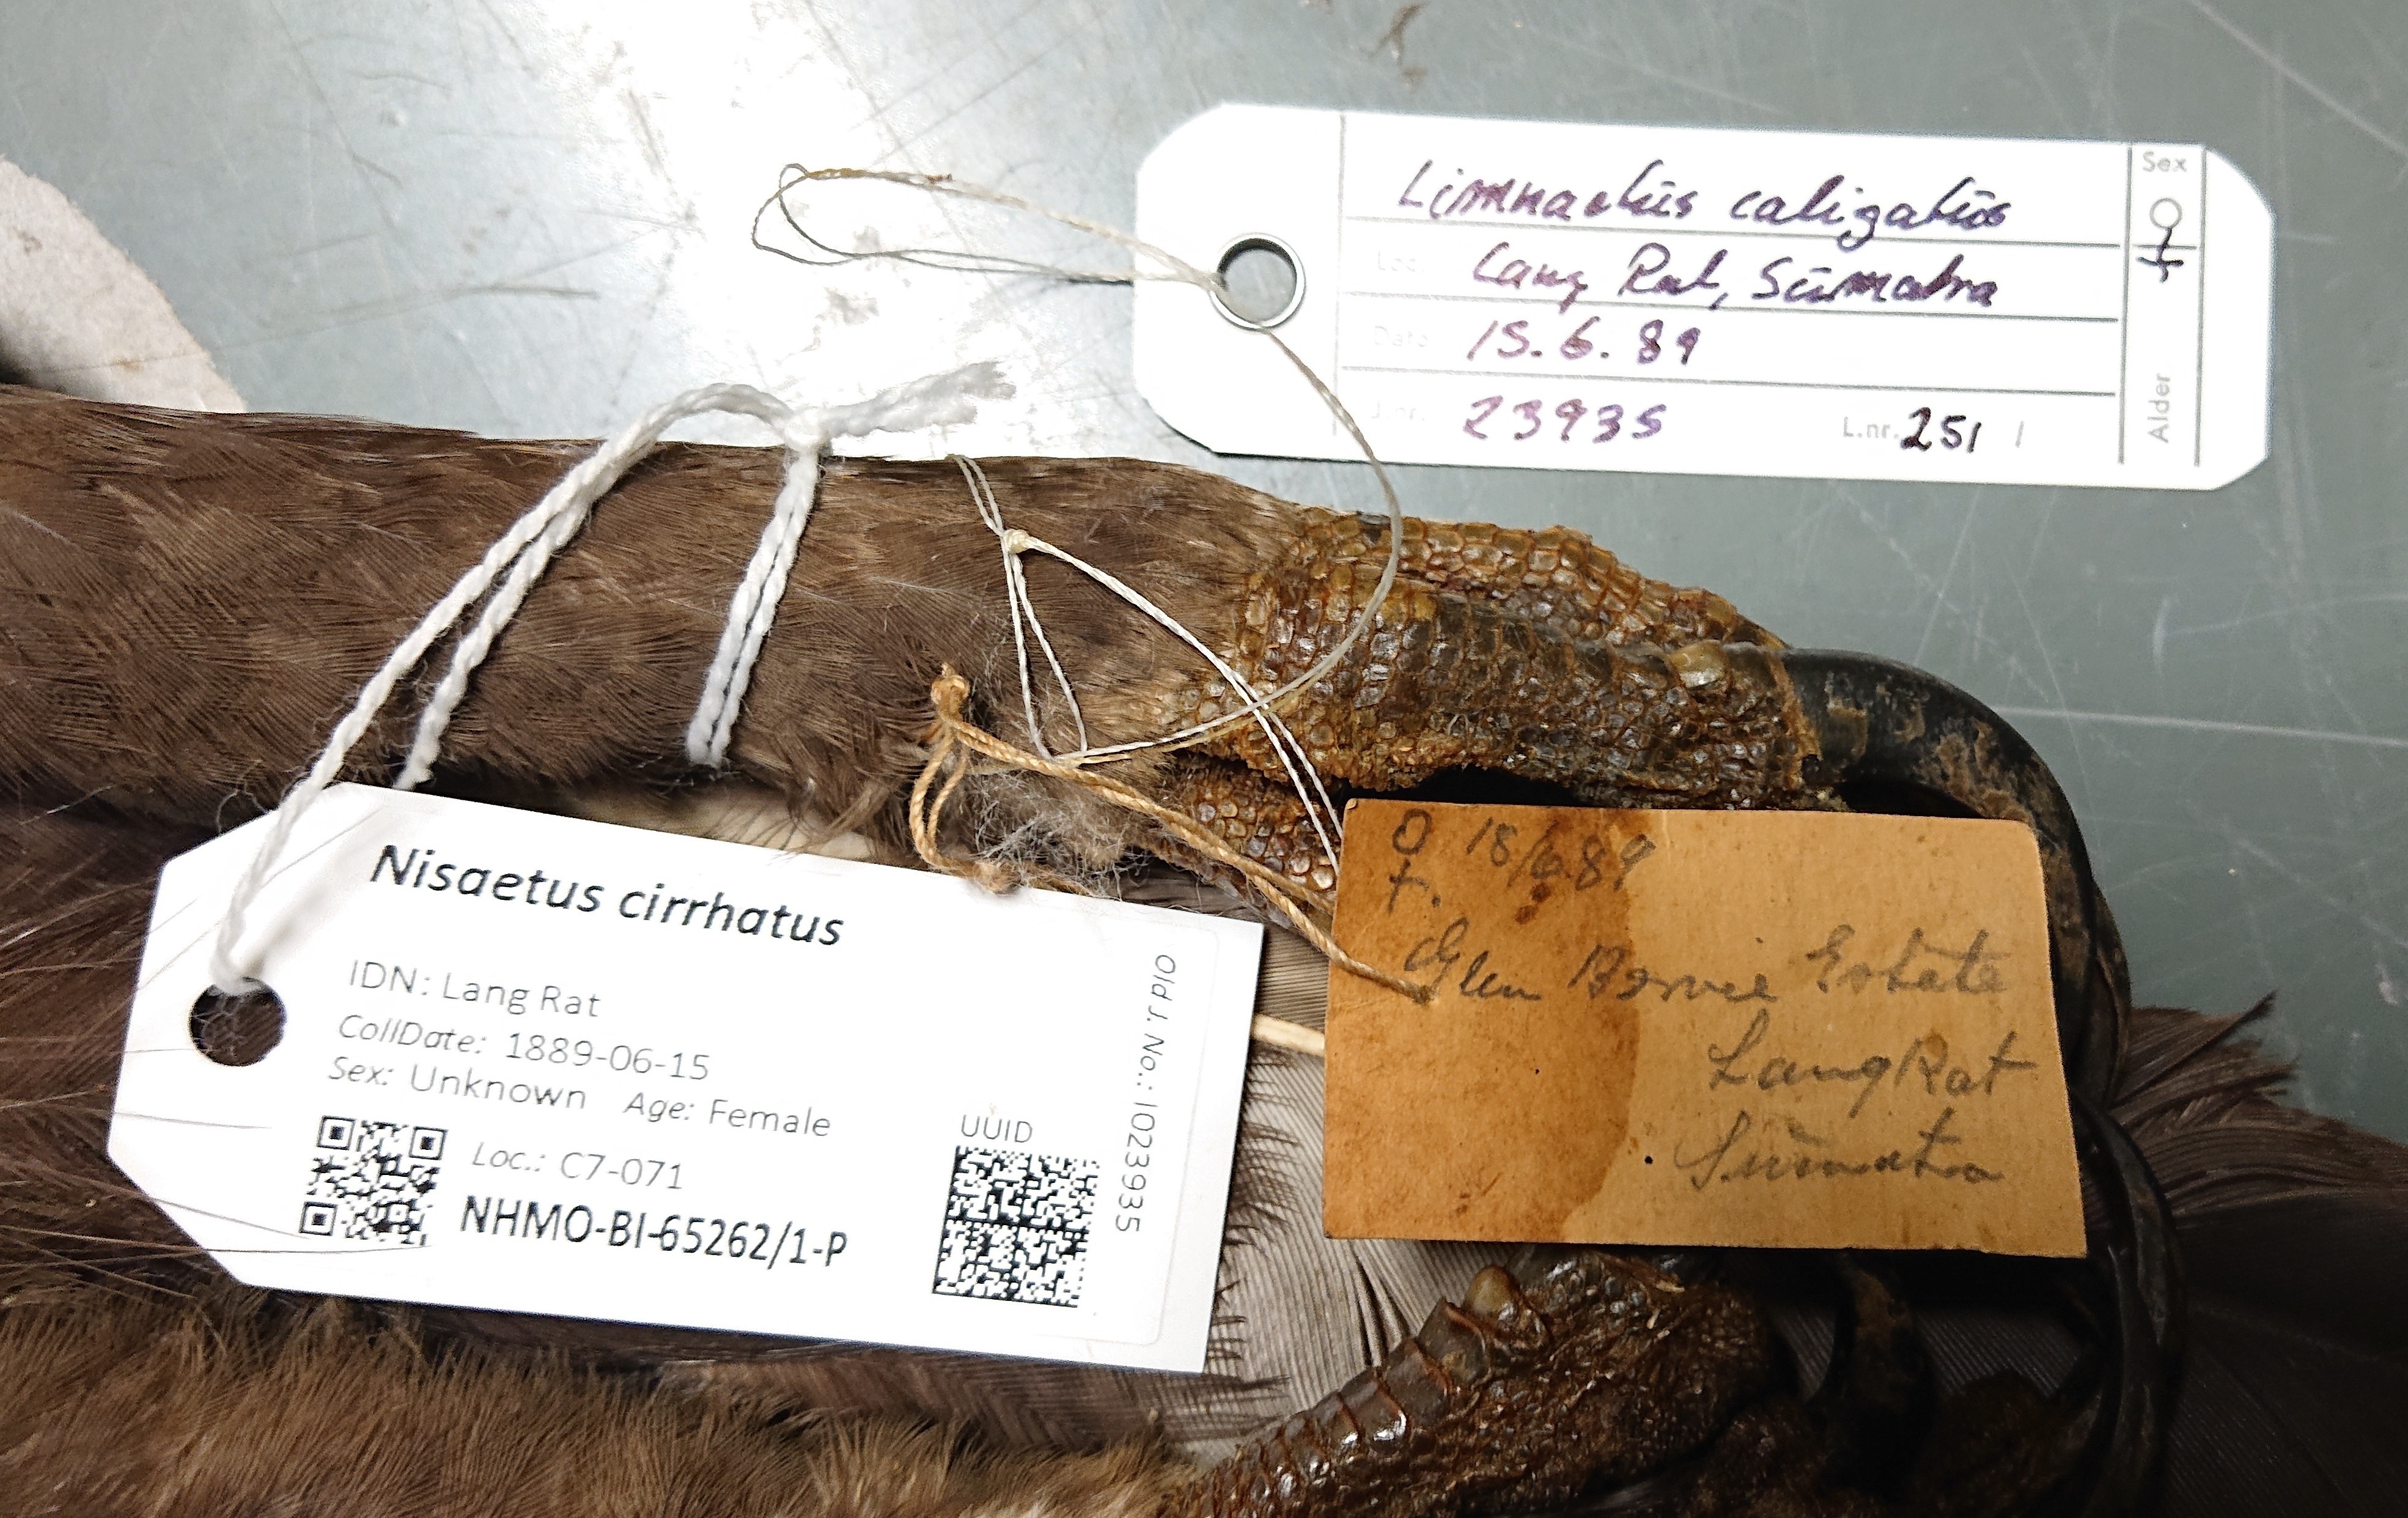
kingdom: Animalia
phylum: Chordata
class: Aves
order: Accipitriformes
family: Accipitridae
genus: Nisaetus
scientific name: Nisaetus cirrhatus
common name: Changeable hawk-eagle
